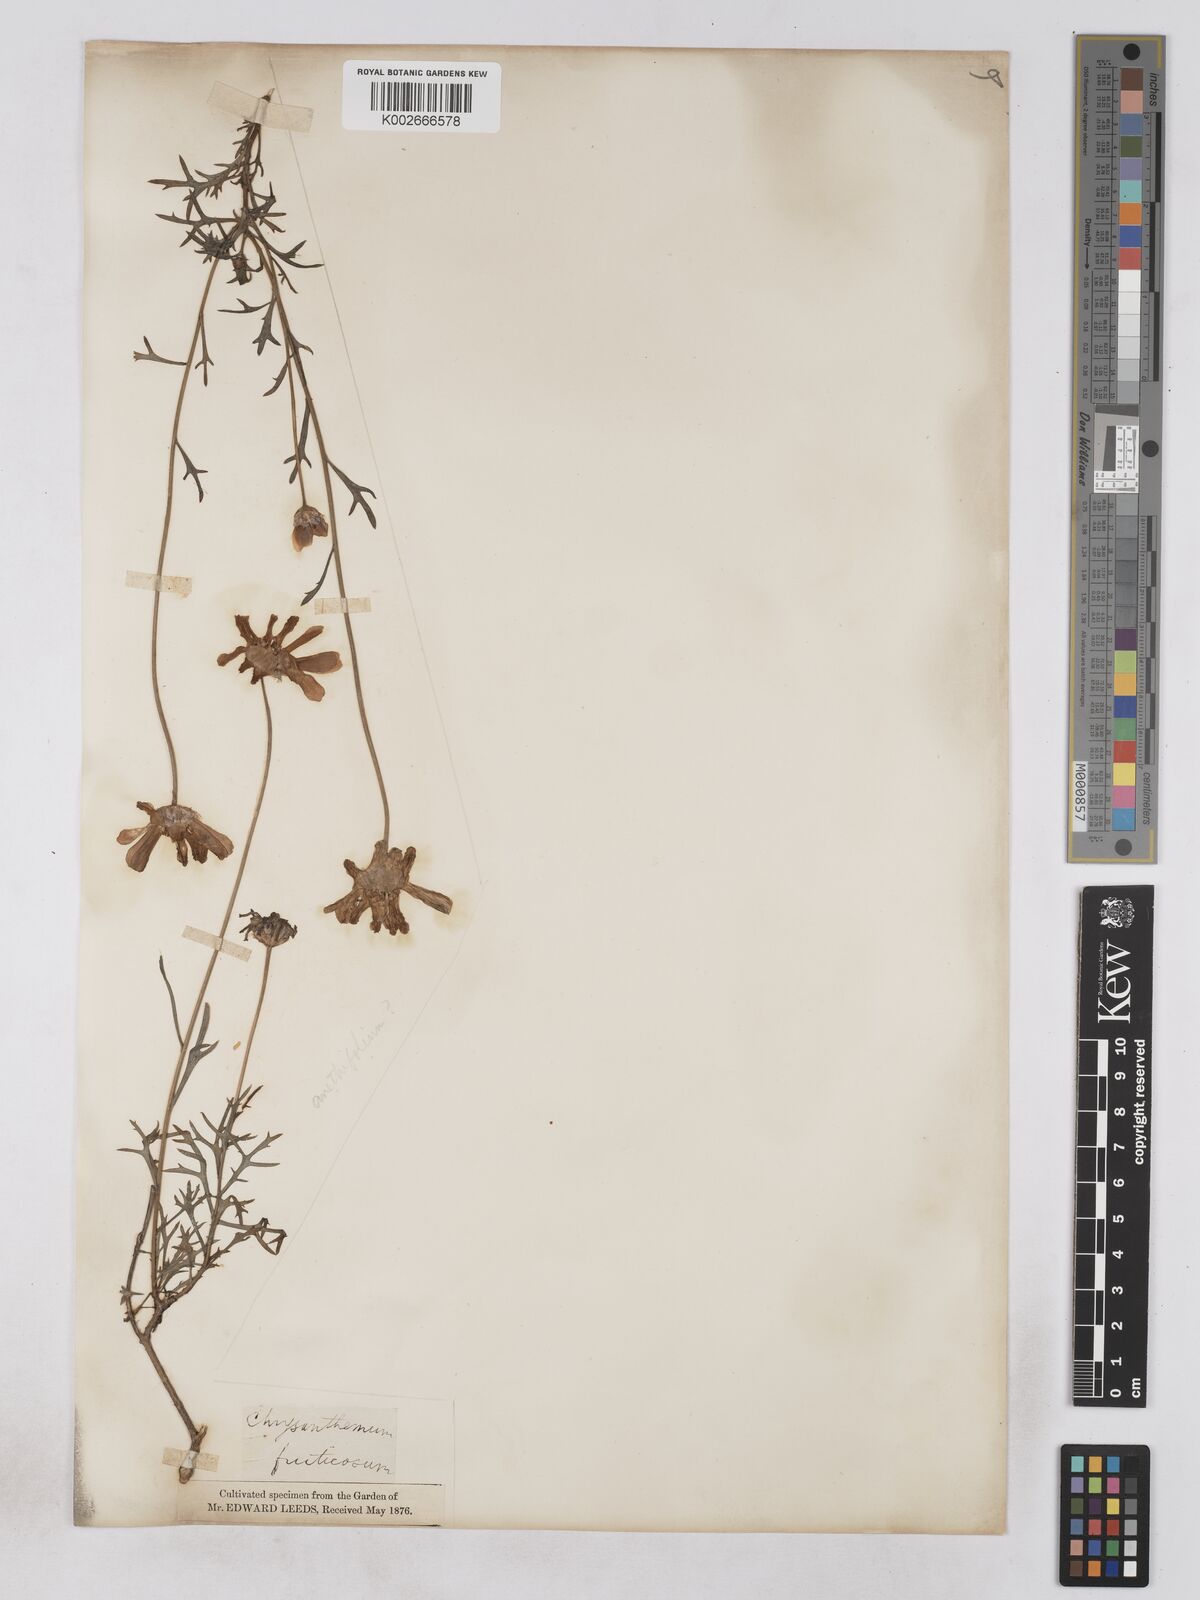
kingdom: Plantae
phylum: Tracheophyta
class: Magnoliopsida
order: Asterales
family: Asteraceae
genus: Argyranthemum
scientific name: Argyranthemum frutescens
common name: Paris daisy
